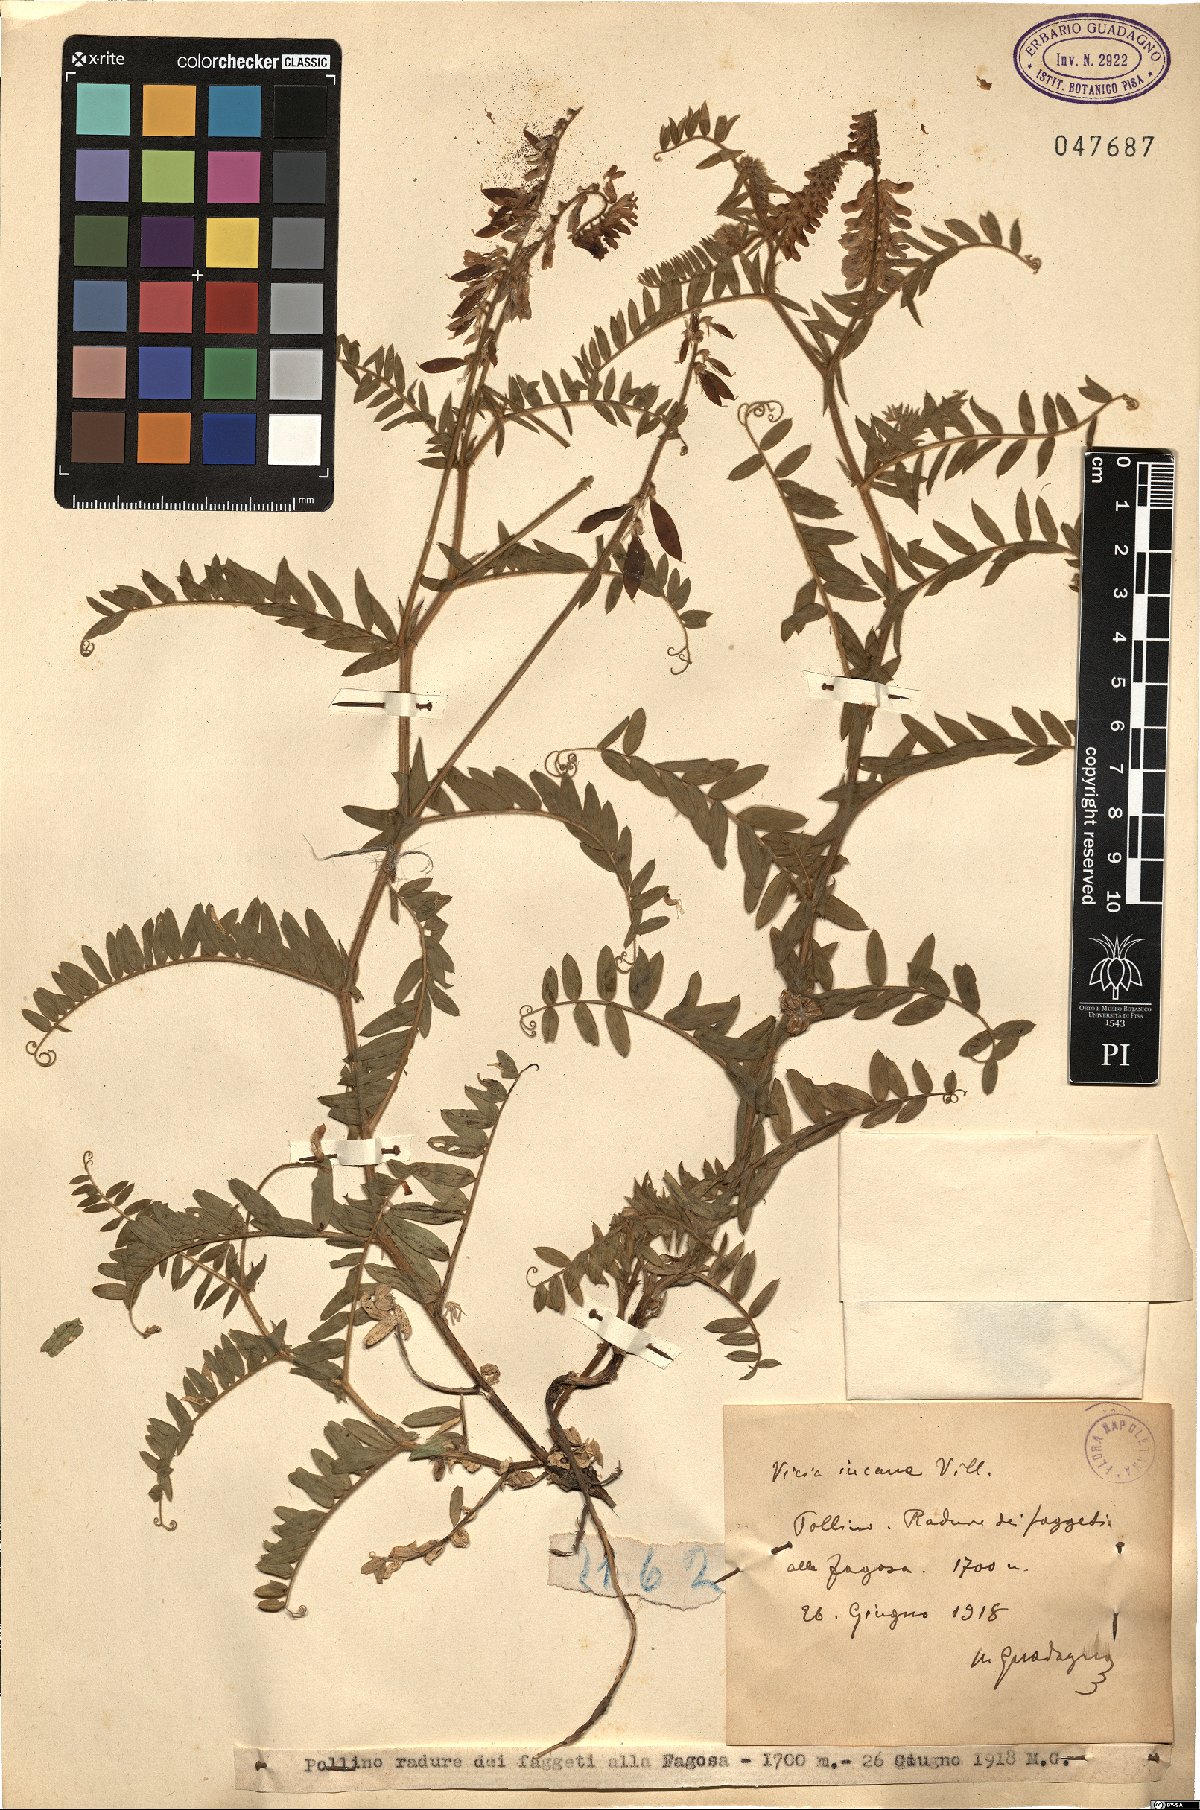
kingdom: Plantae
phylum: Tracheophyta
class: Magnoliopsida
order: Fabales
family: Fabaceae
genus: Vicia
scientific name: Vicia incana
